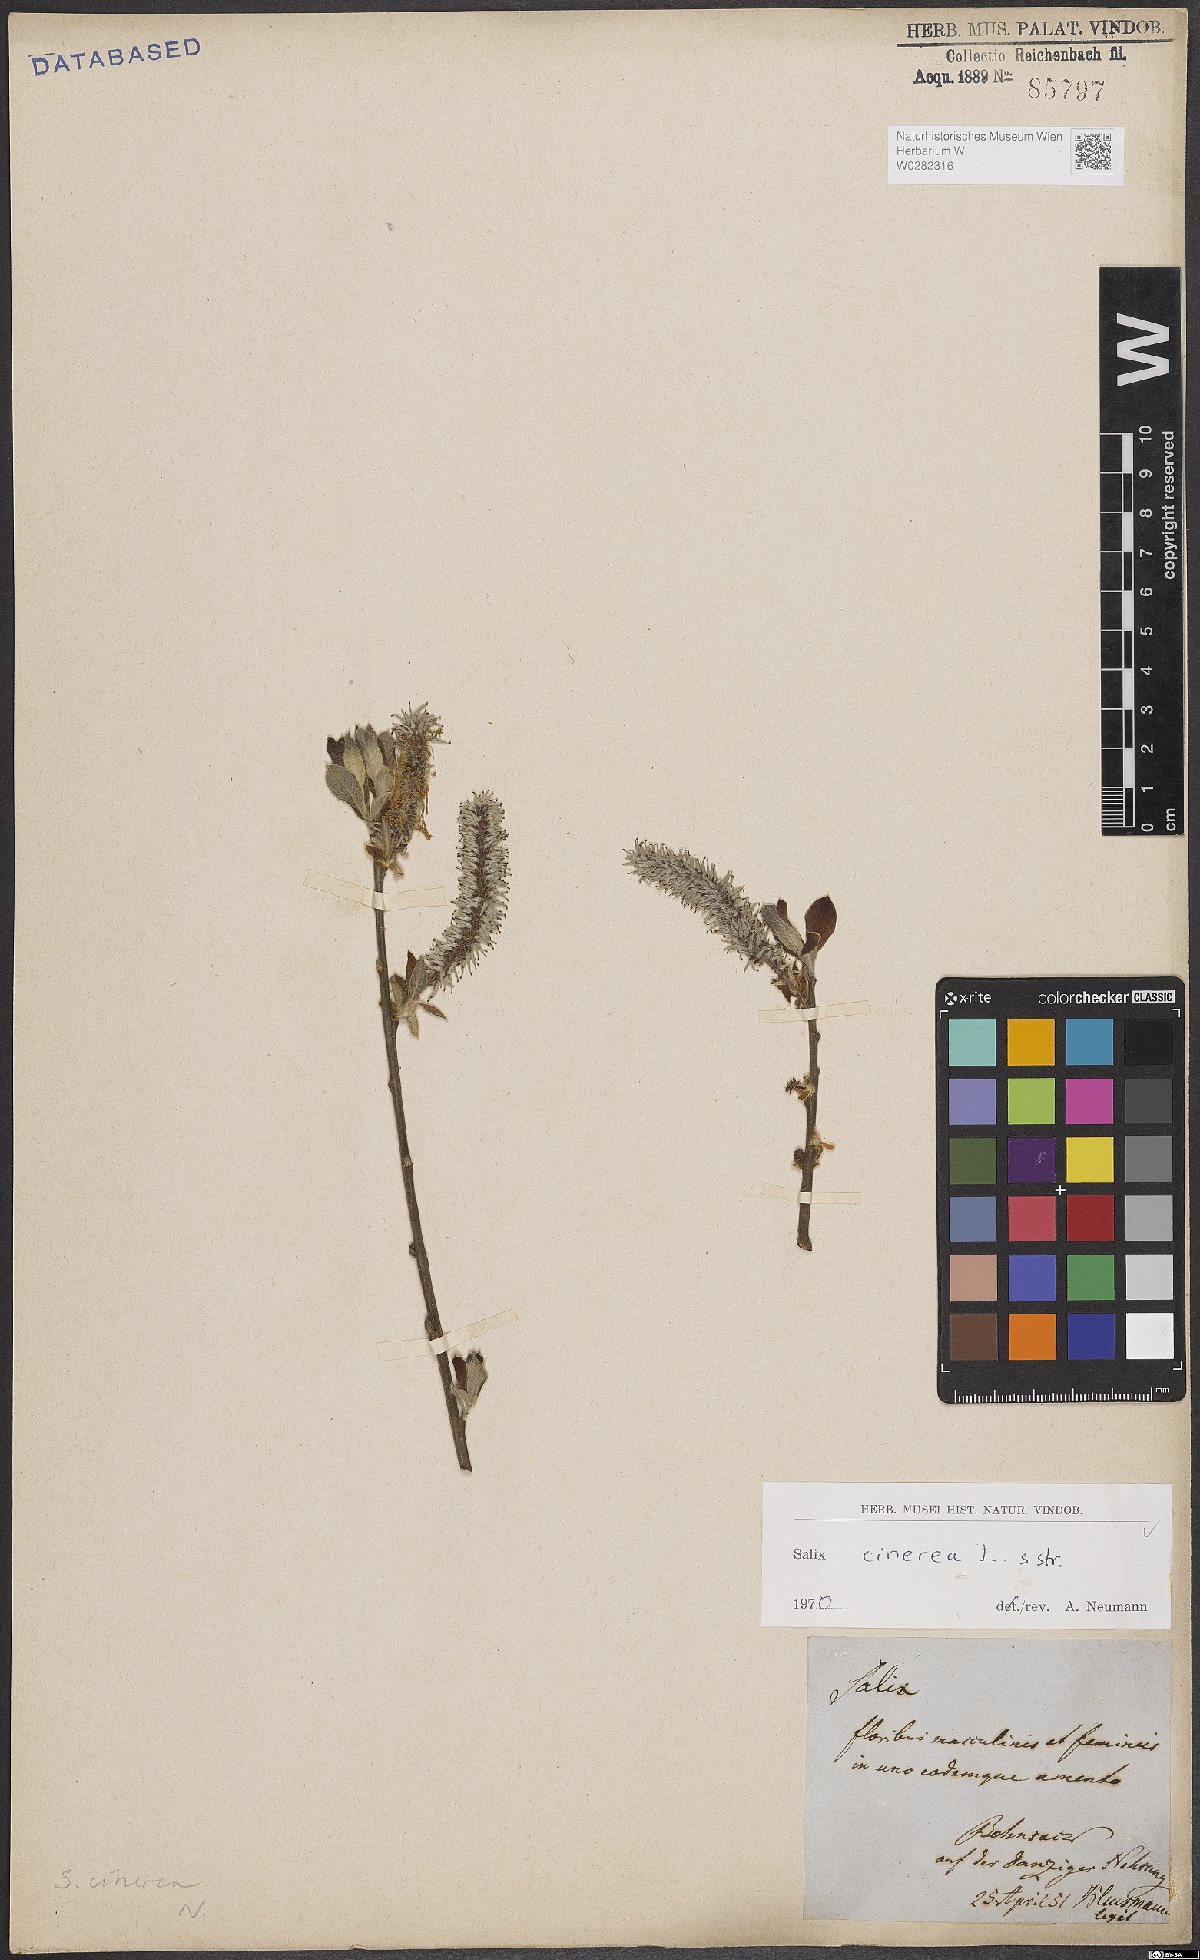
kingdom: Plantae
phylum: Tracheophyta
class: Magnoliopsida
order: Malpighiales
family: Salicaceae
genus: Salix
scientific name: Salix cinerea
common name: Common sallow
